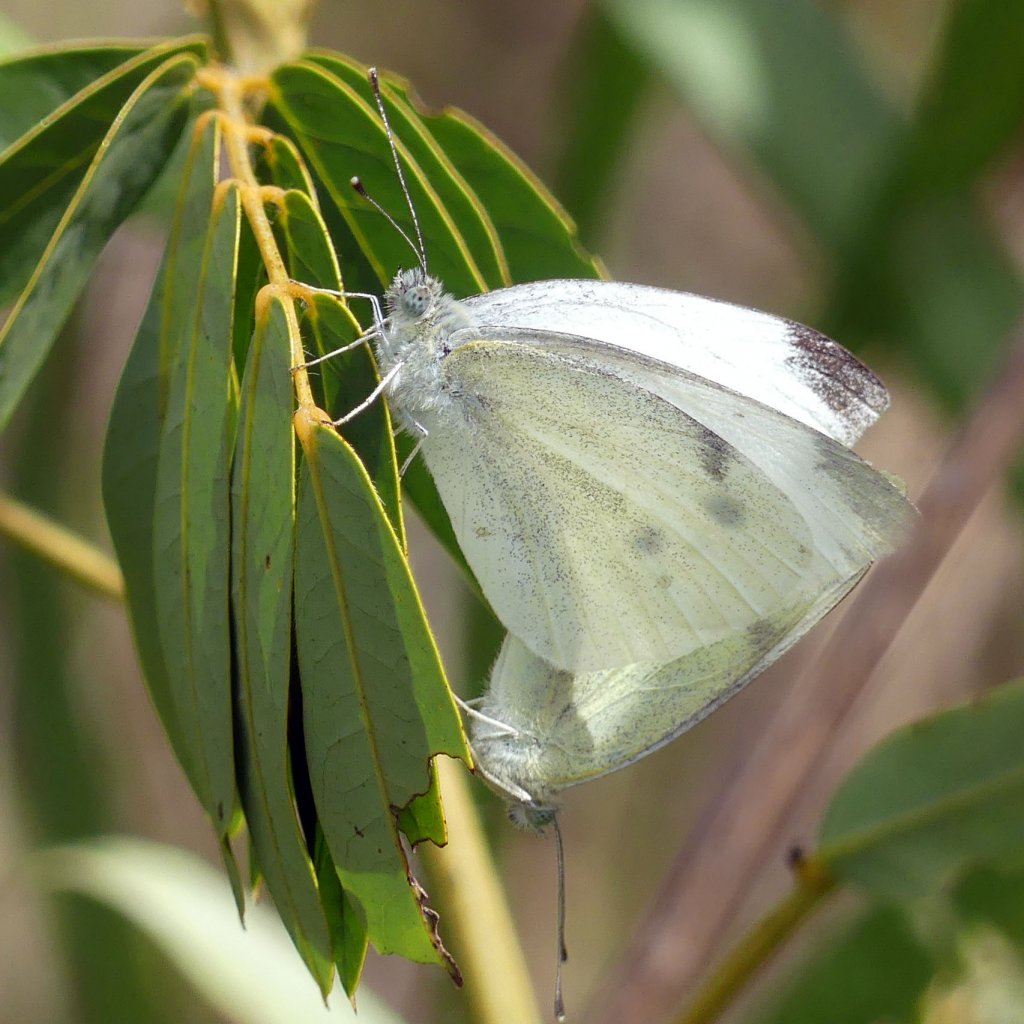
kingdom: Animalia
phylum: Arthropoda
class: Insecta
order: Lepidoptera
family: Pieridae
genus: Pieris
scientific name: Pieris rapae
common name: Cabbage White
